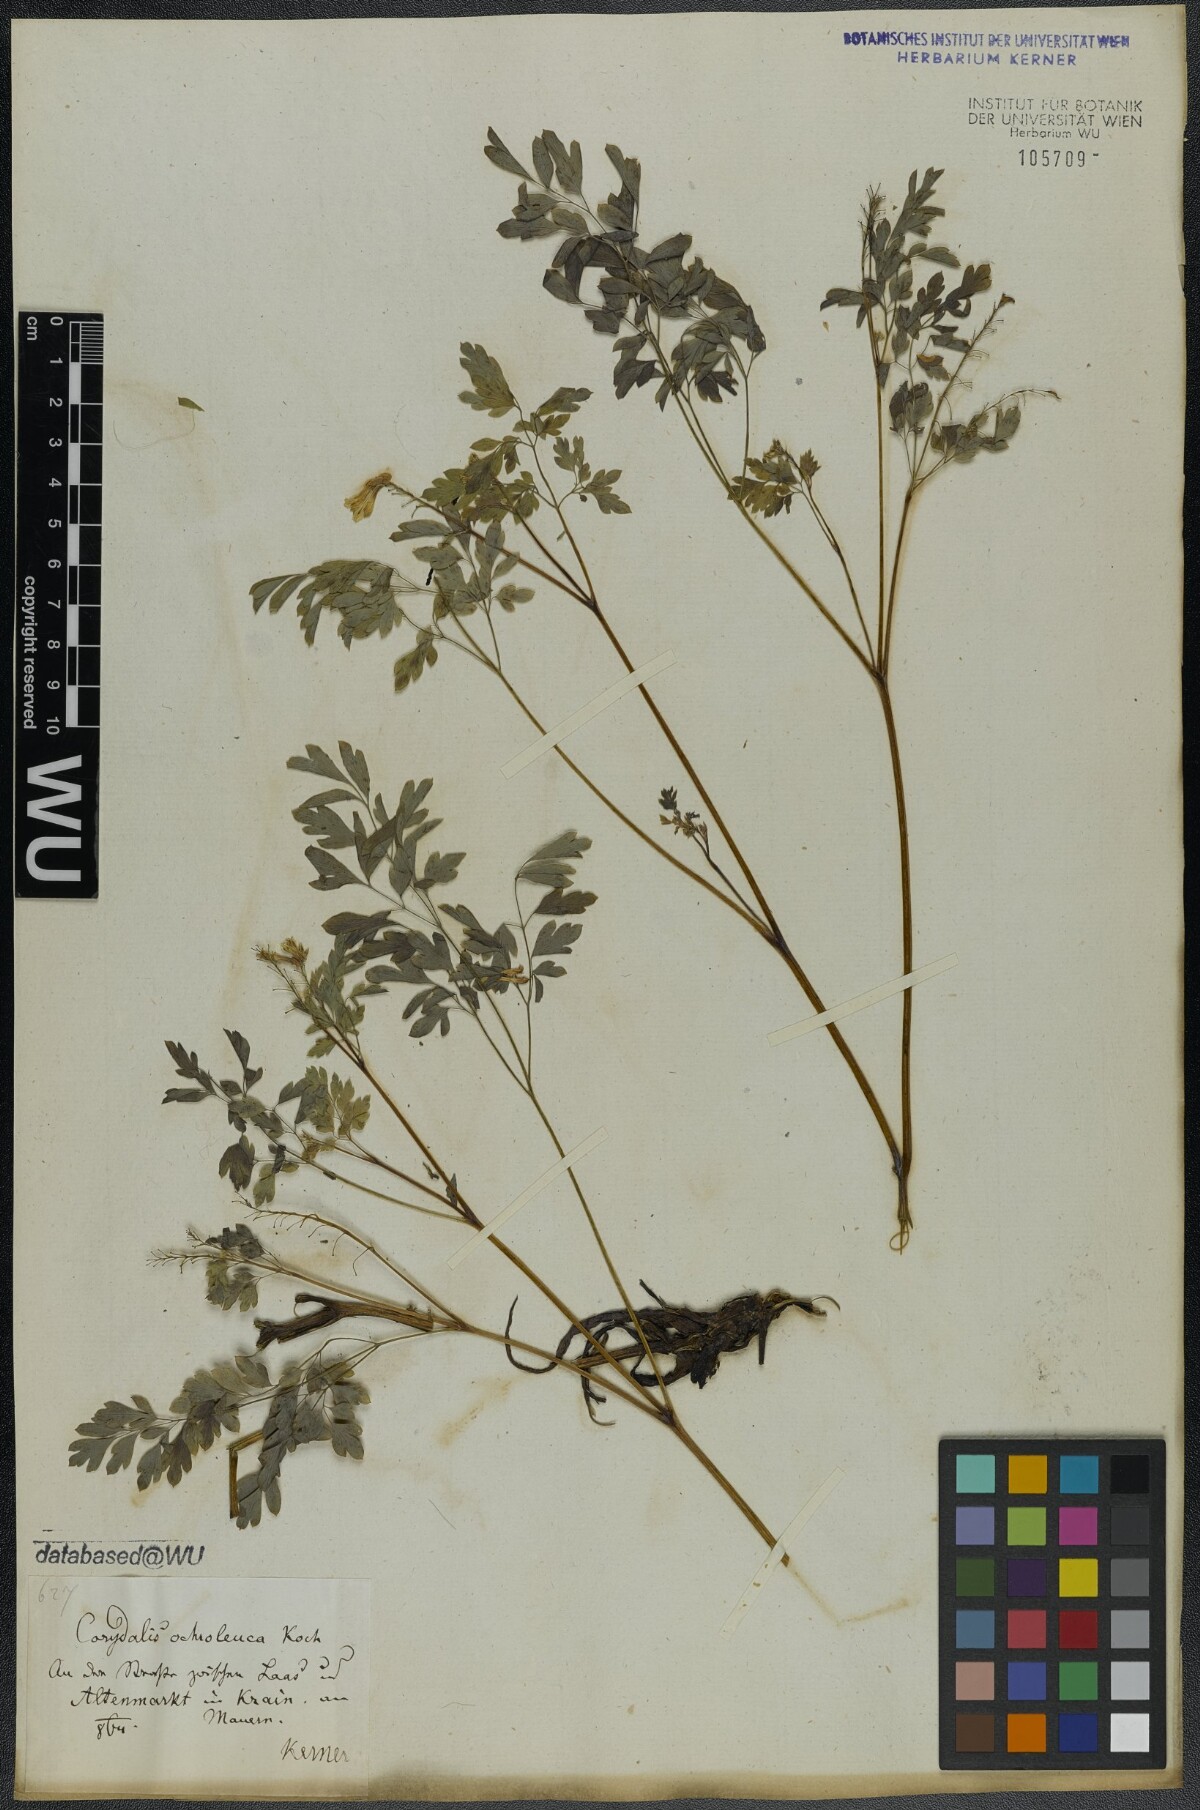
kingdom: Plantae
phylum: Tracheophyta
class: Magnoliopsida
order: Ranunculales
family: Papaveraceae
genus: Pseudofumaria
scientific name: Pseudofumaria alba
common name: Pale corydalis
